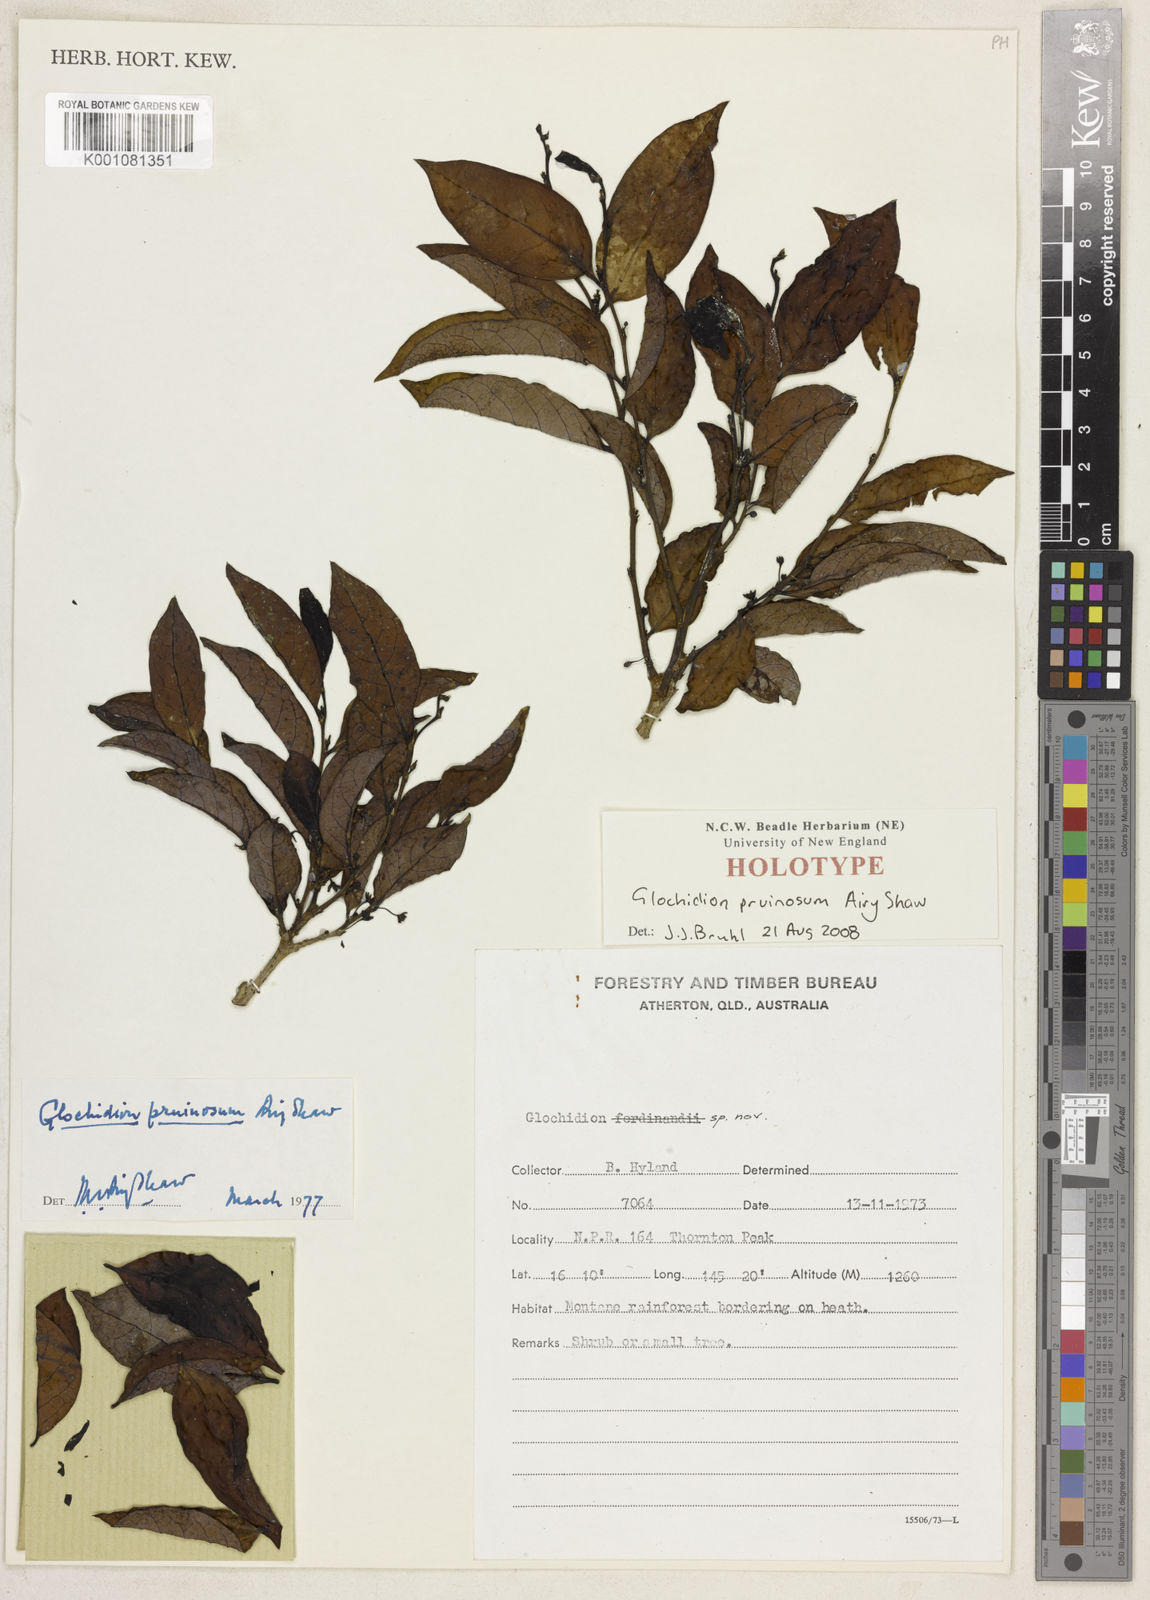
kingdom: Plantae
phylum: Tracheophyta
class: Magnoliopsida
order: Malpighiales
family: Phyllanthaceae
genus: Glochidion
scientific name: Glochidion pruinosum
